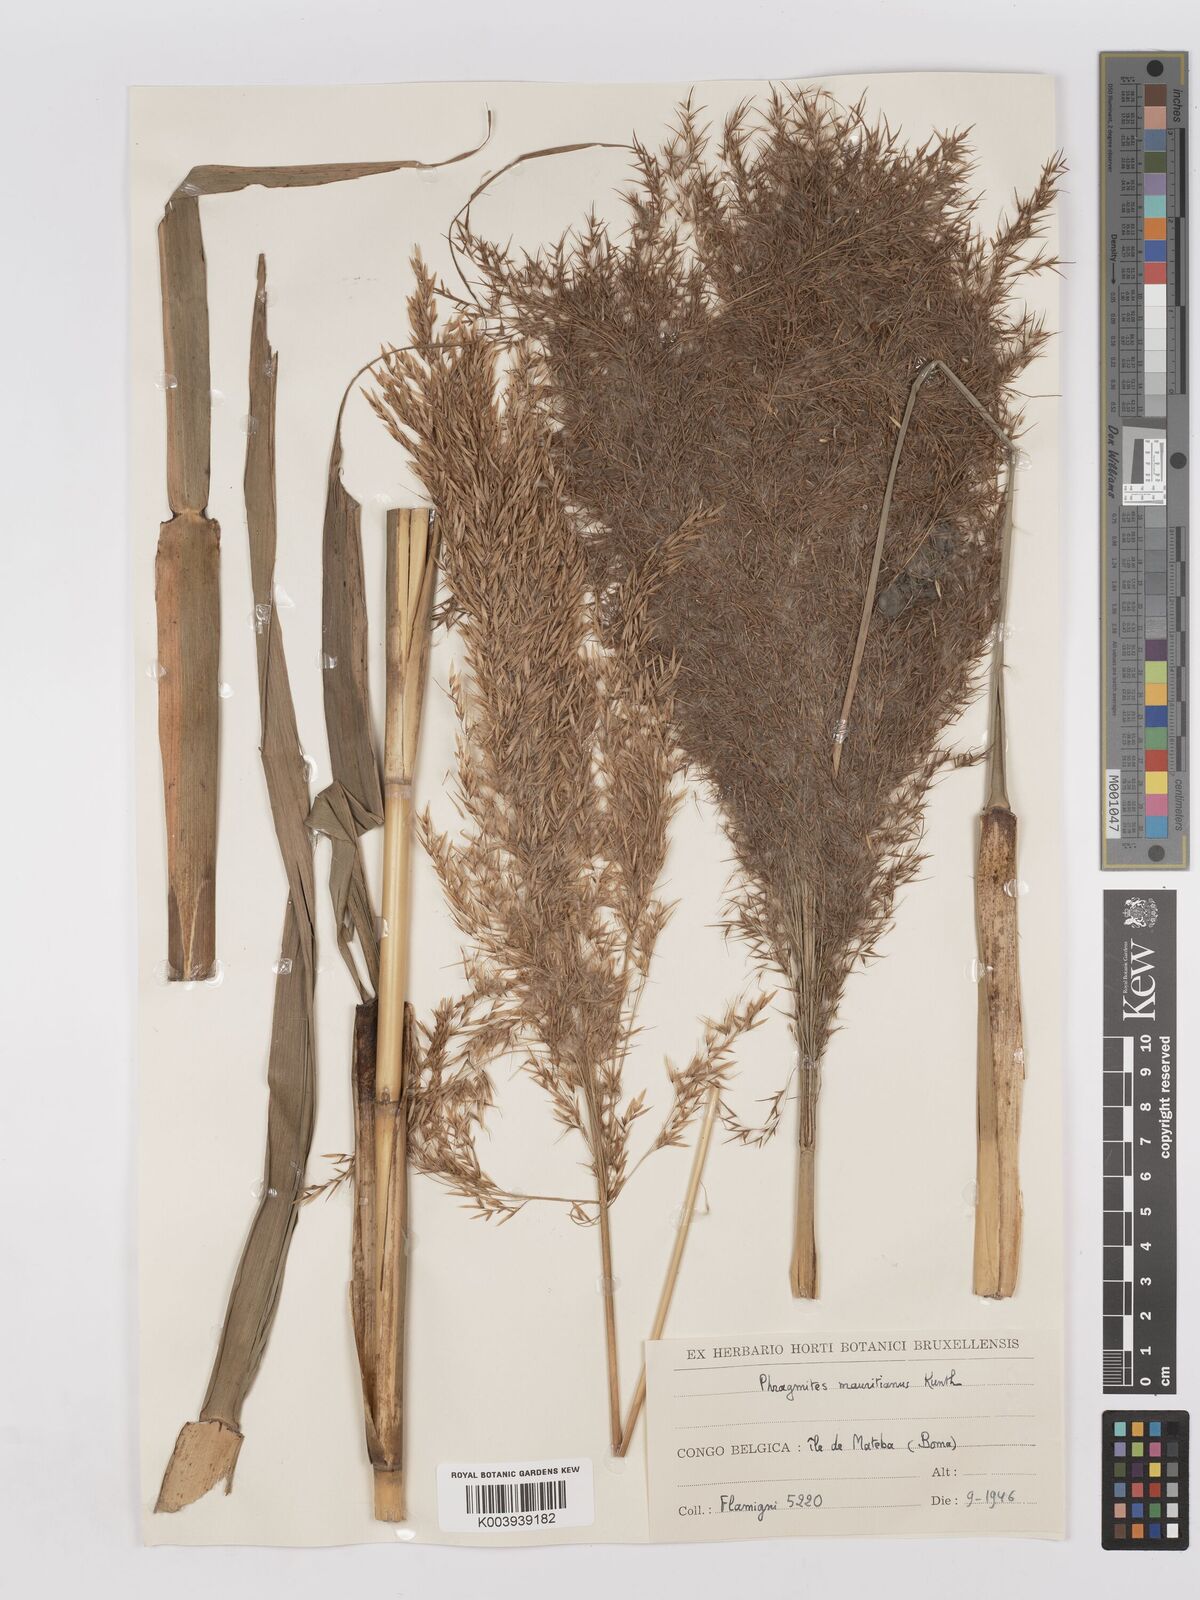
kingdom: Plantae
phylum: Tracheophyta
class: Liliopsida
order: Poales
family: Poaceae
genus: Phragmites
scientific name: Phragmites mauritianus
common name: Reed grass
